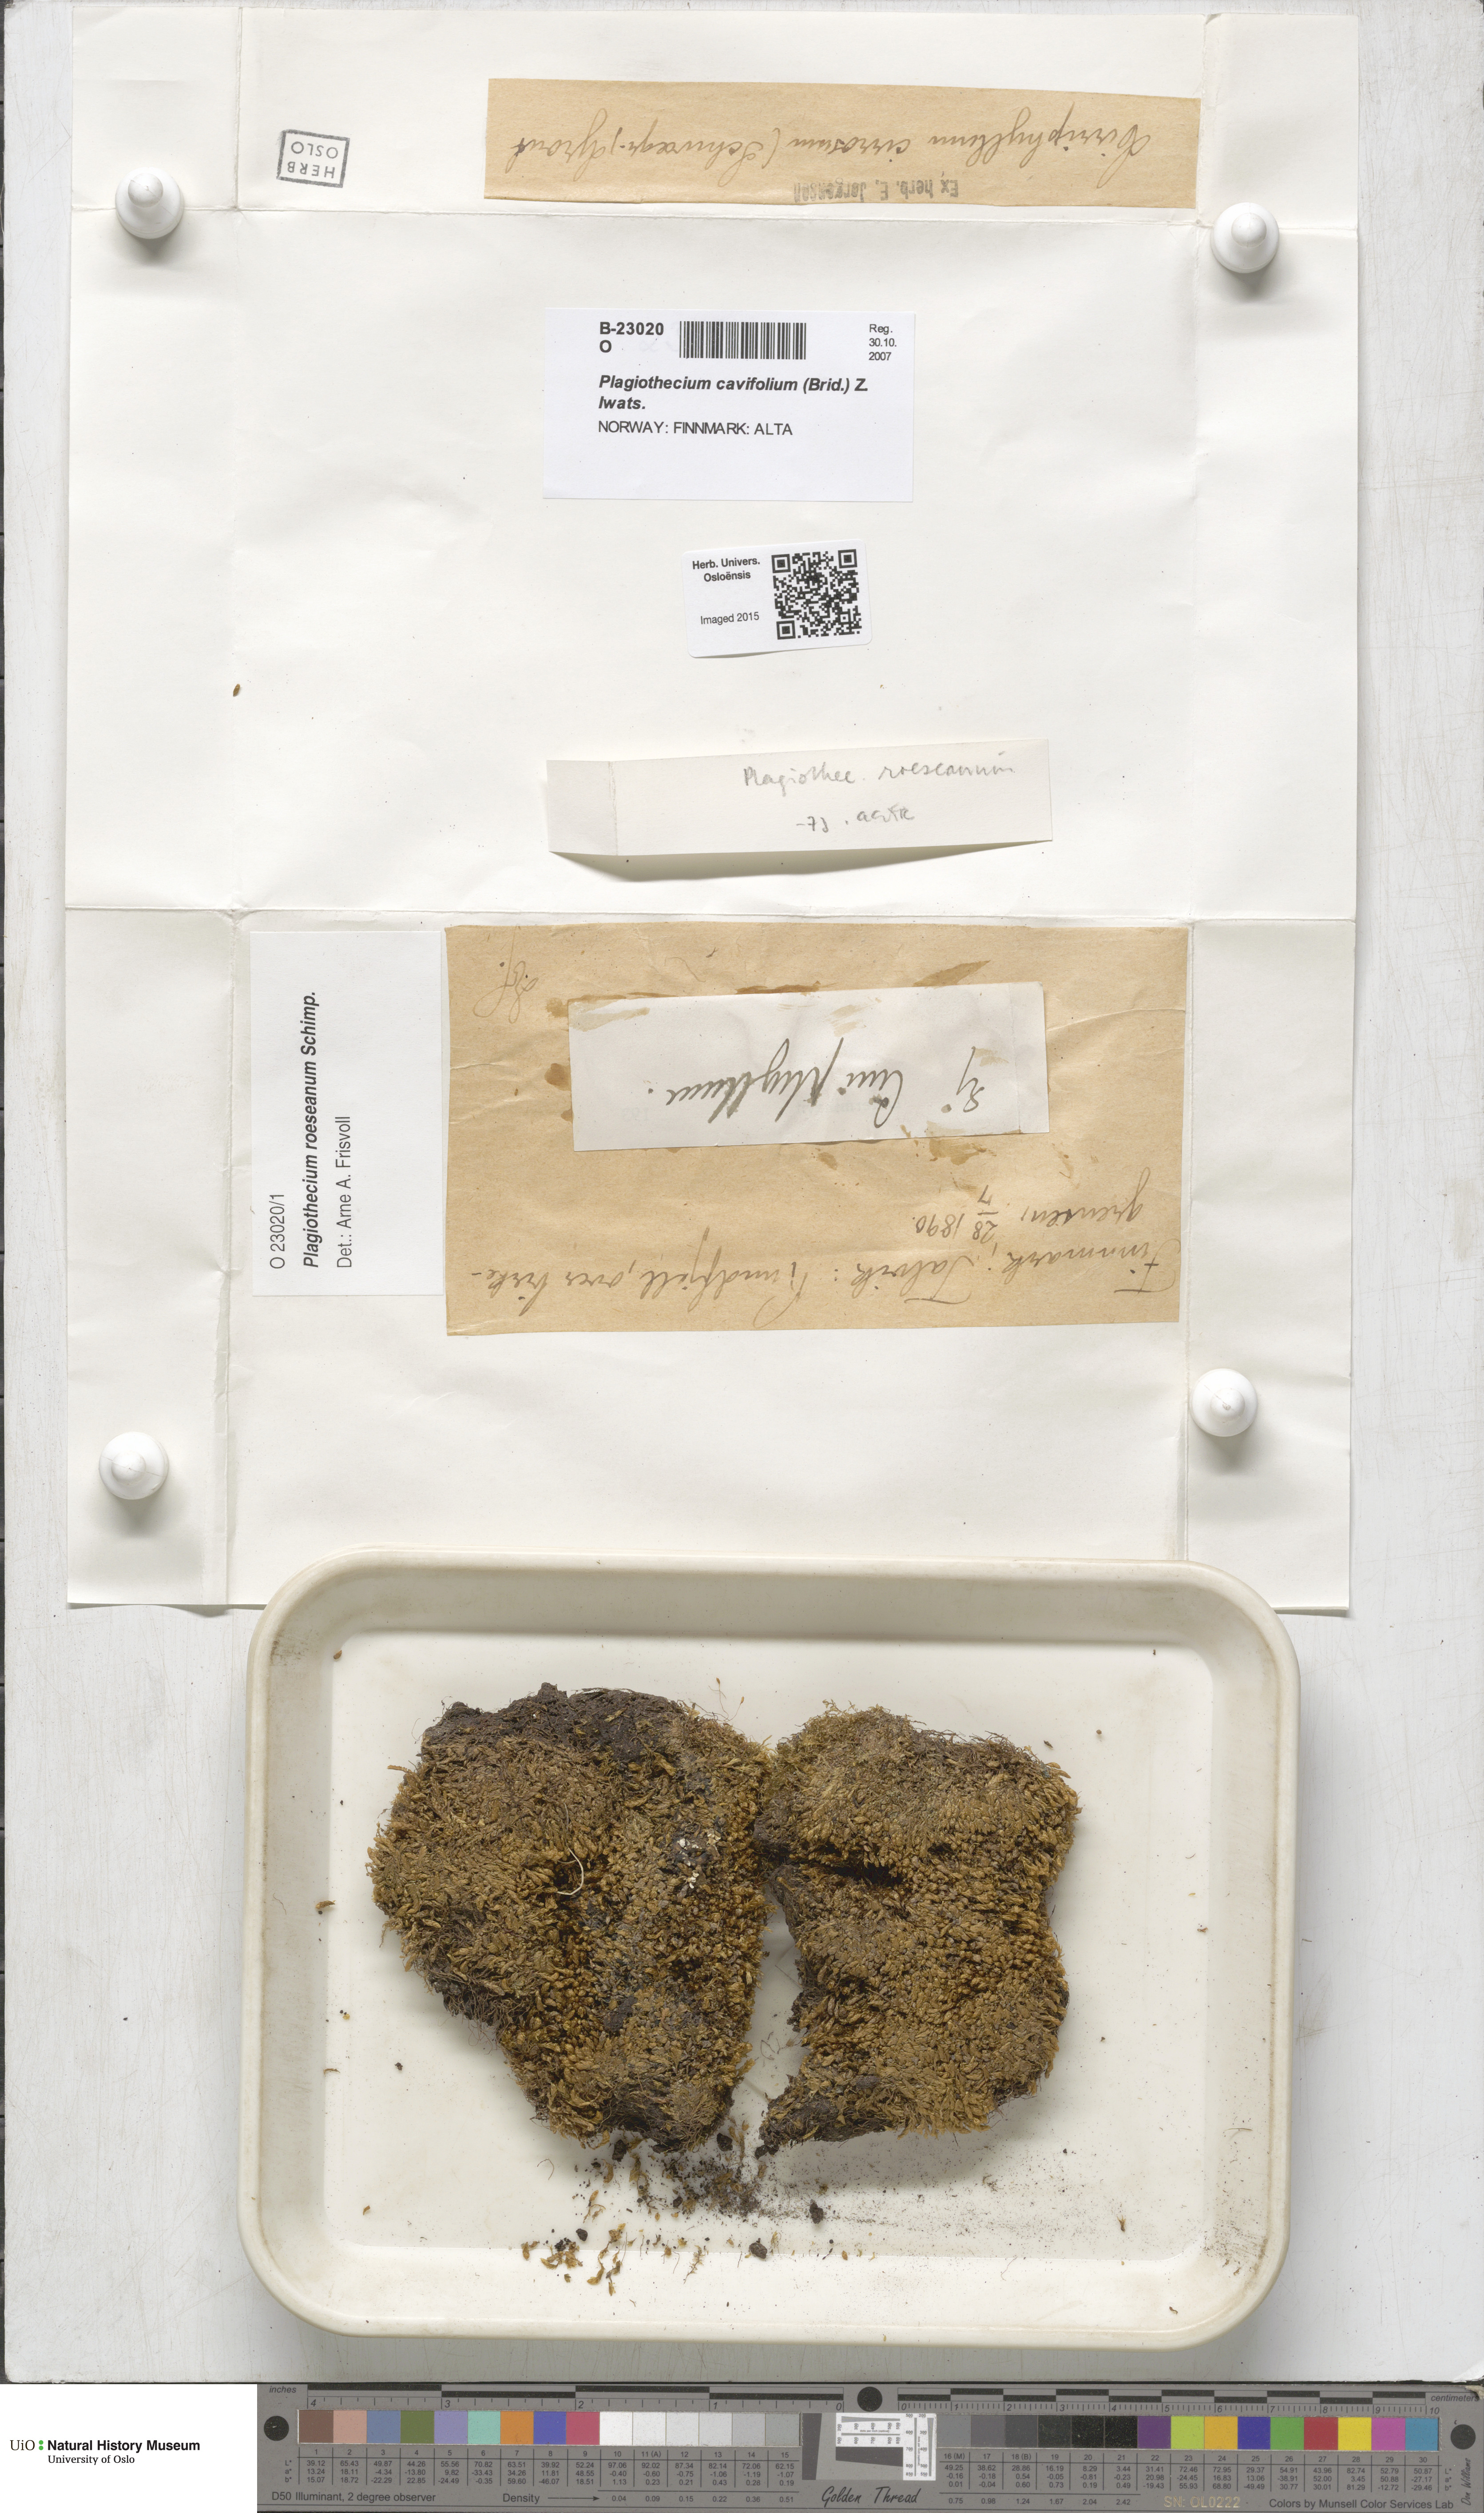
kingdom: Plantae
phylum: Bryophyta
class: Bryopsida
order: Hypnales
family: Plagiotheciaceae
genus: Plagiothecium
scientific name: Plagiothecium cavifolium
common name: Round silk moss
